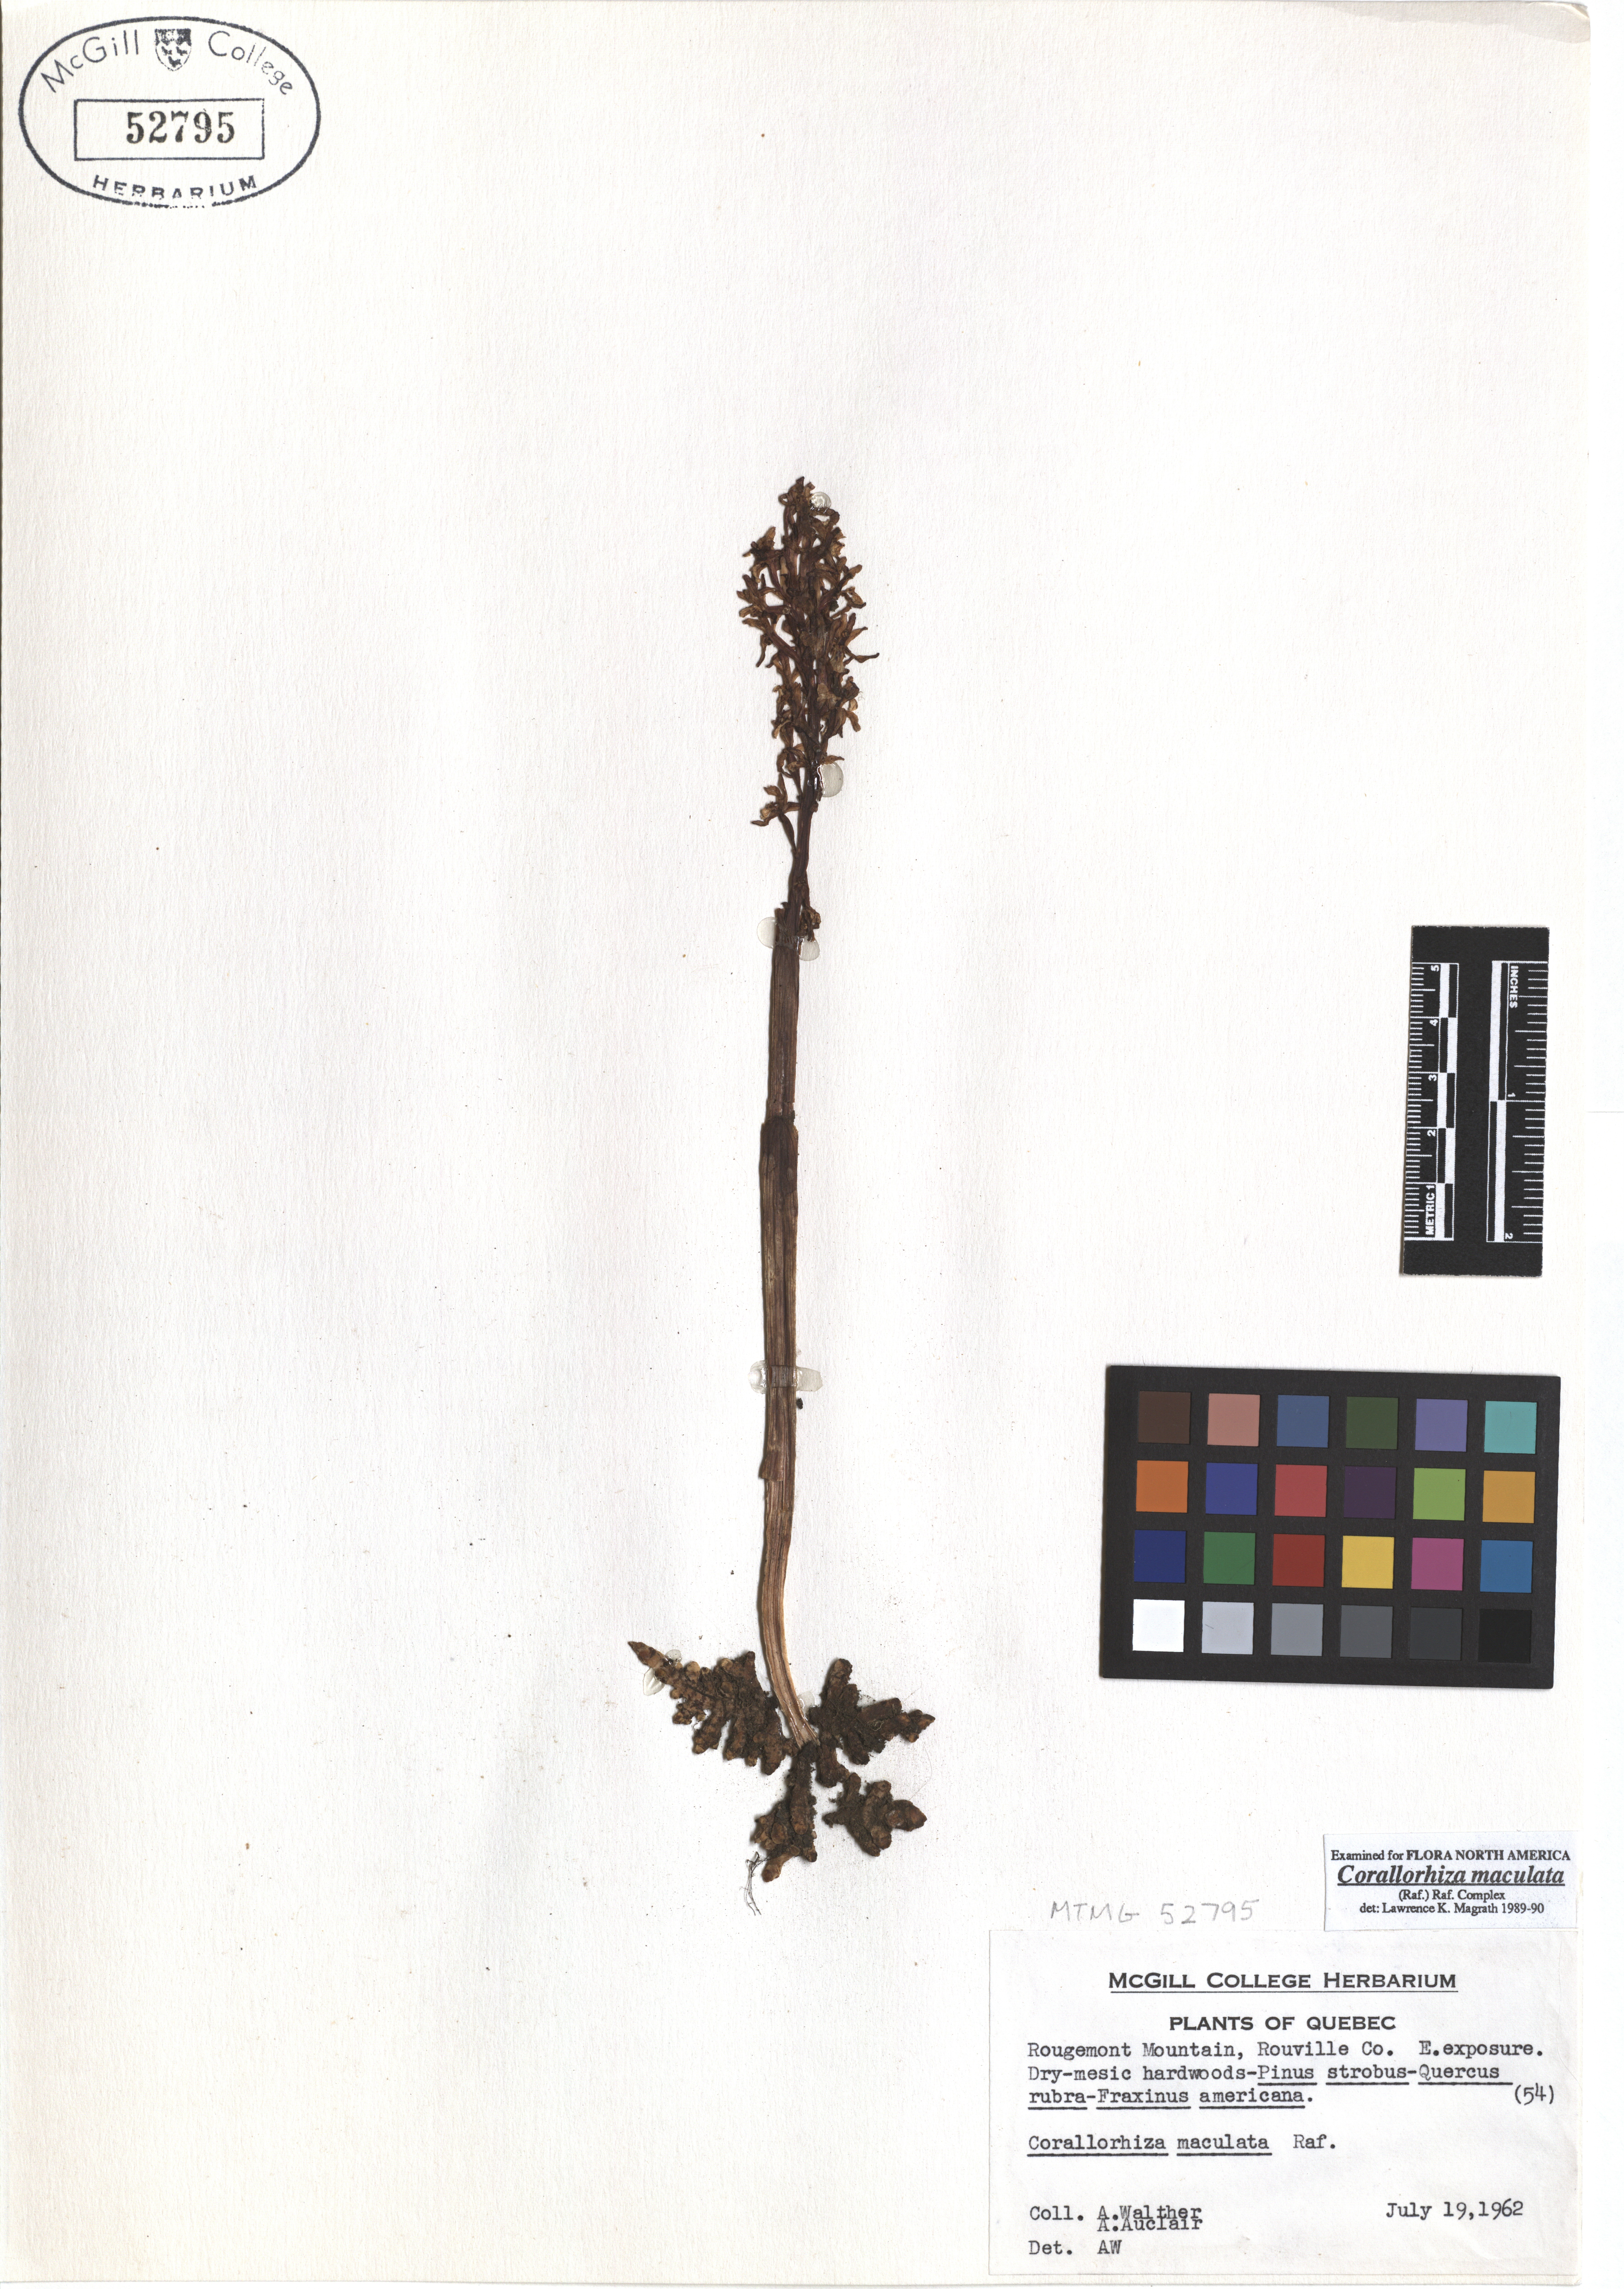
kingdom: Plantae
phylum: Tracheophyta
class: Liliopsida
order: Asparagales
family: Orchidaceae
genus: Corallorhiza
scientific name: Corallorhiza maculata
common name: Spotted coralroot
